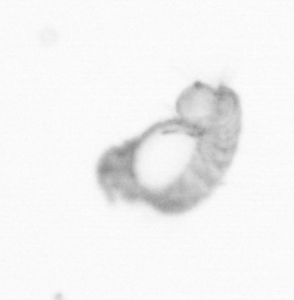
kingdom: Animalia
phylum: Annelida
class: Polychaeta
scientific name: Polychaeta
